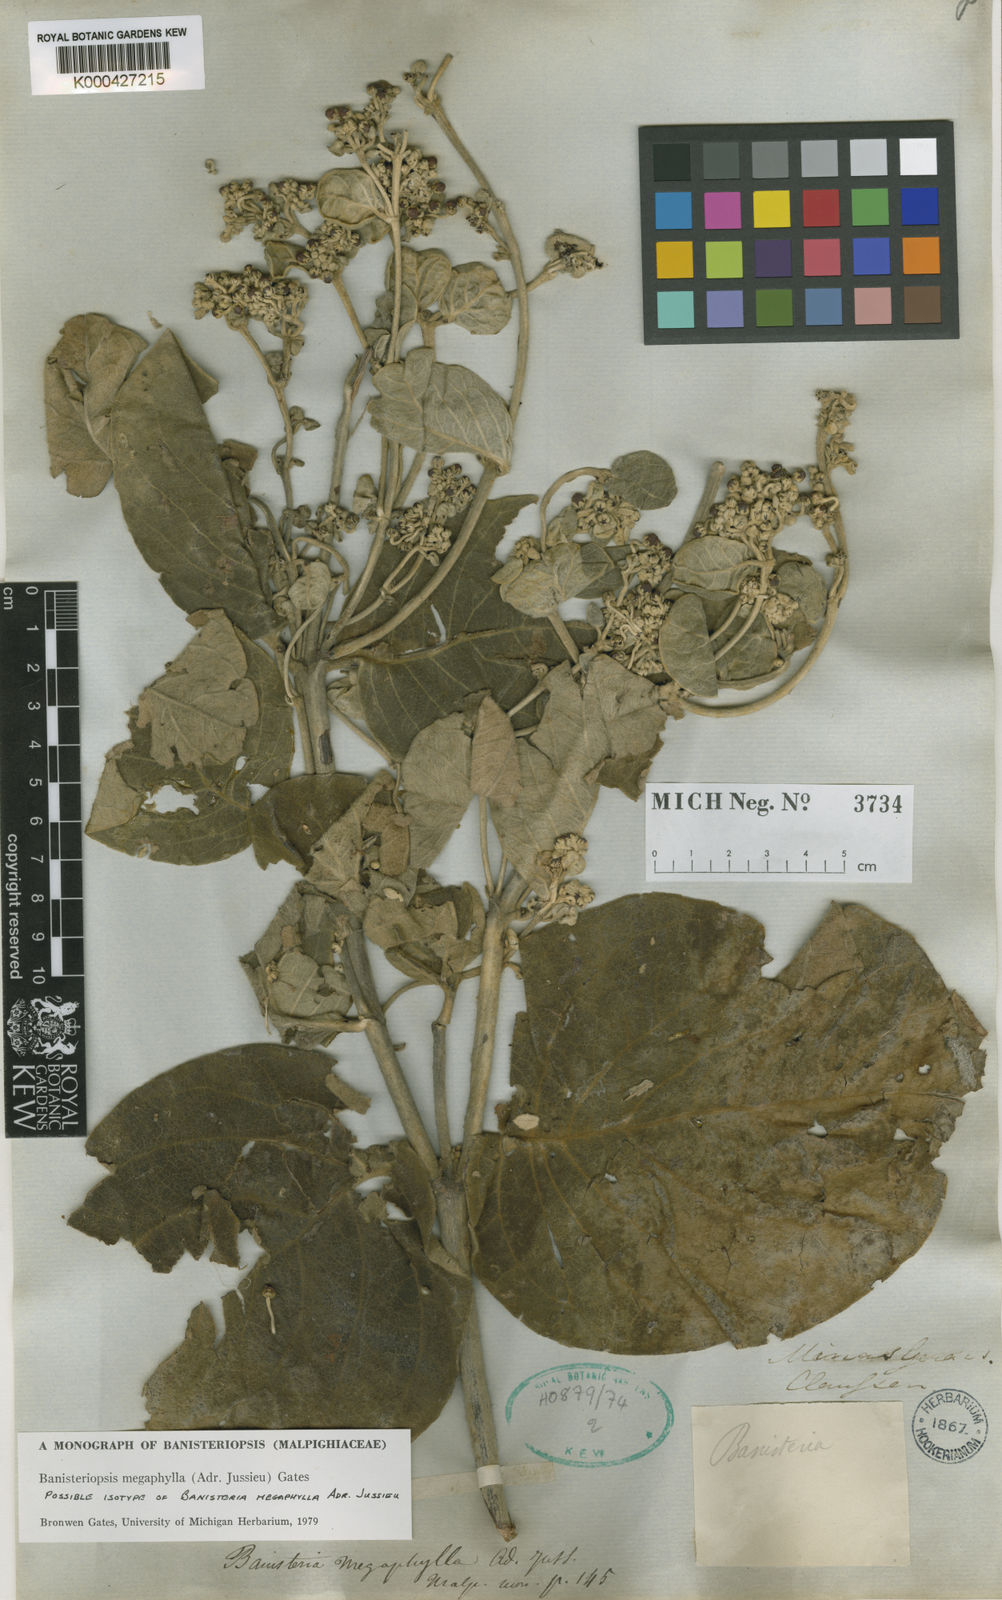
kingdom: Plantae
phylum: Tracheophyta
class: Magnoliopsida
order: Malpighiales
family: Malpighiaceae
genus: Banisteriopsis
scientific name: Banisteriopsis megaphylla
